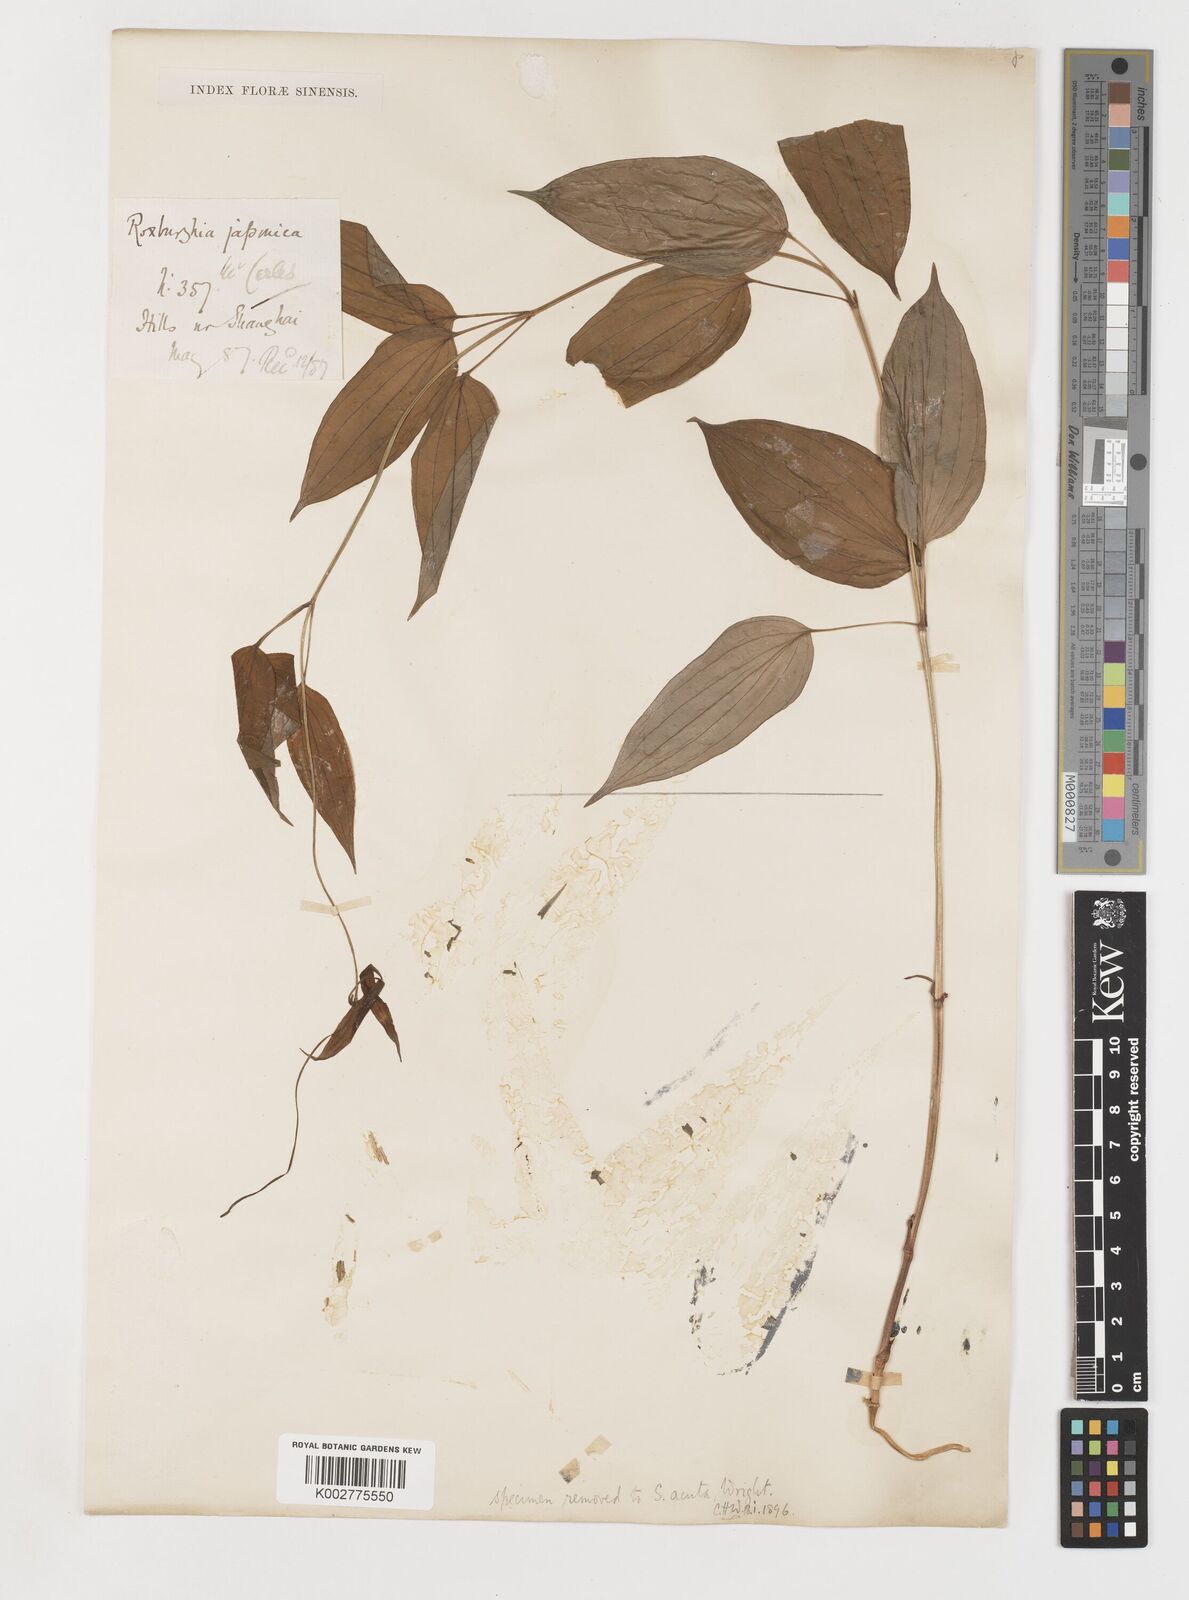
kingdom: Plantae
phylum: Tracheophyta
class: Liliopsida
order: Pandanales
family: Stemonaceae
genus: Stemona
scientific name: Stemona japonica
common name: Stemona
